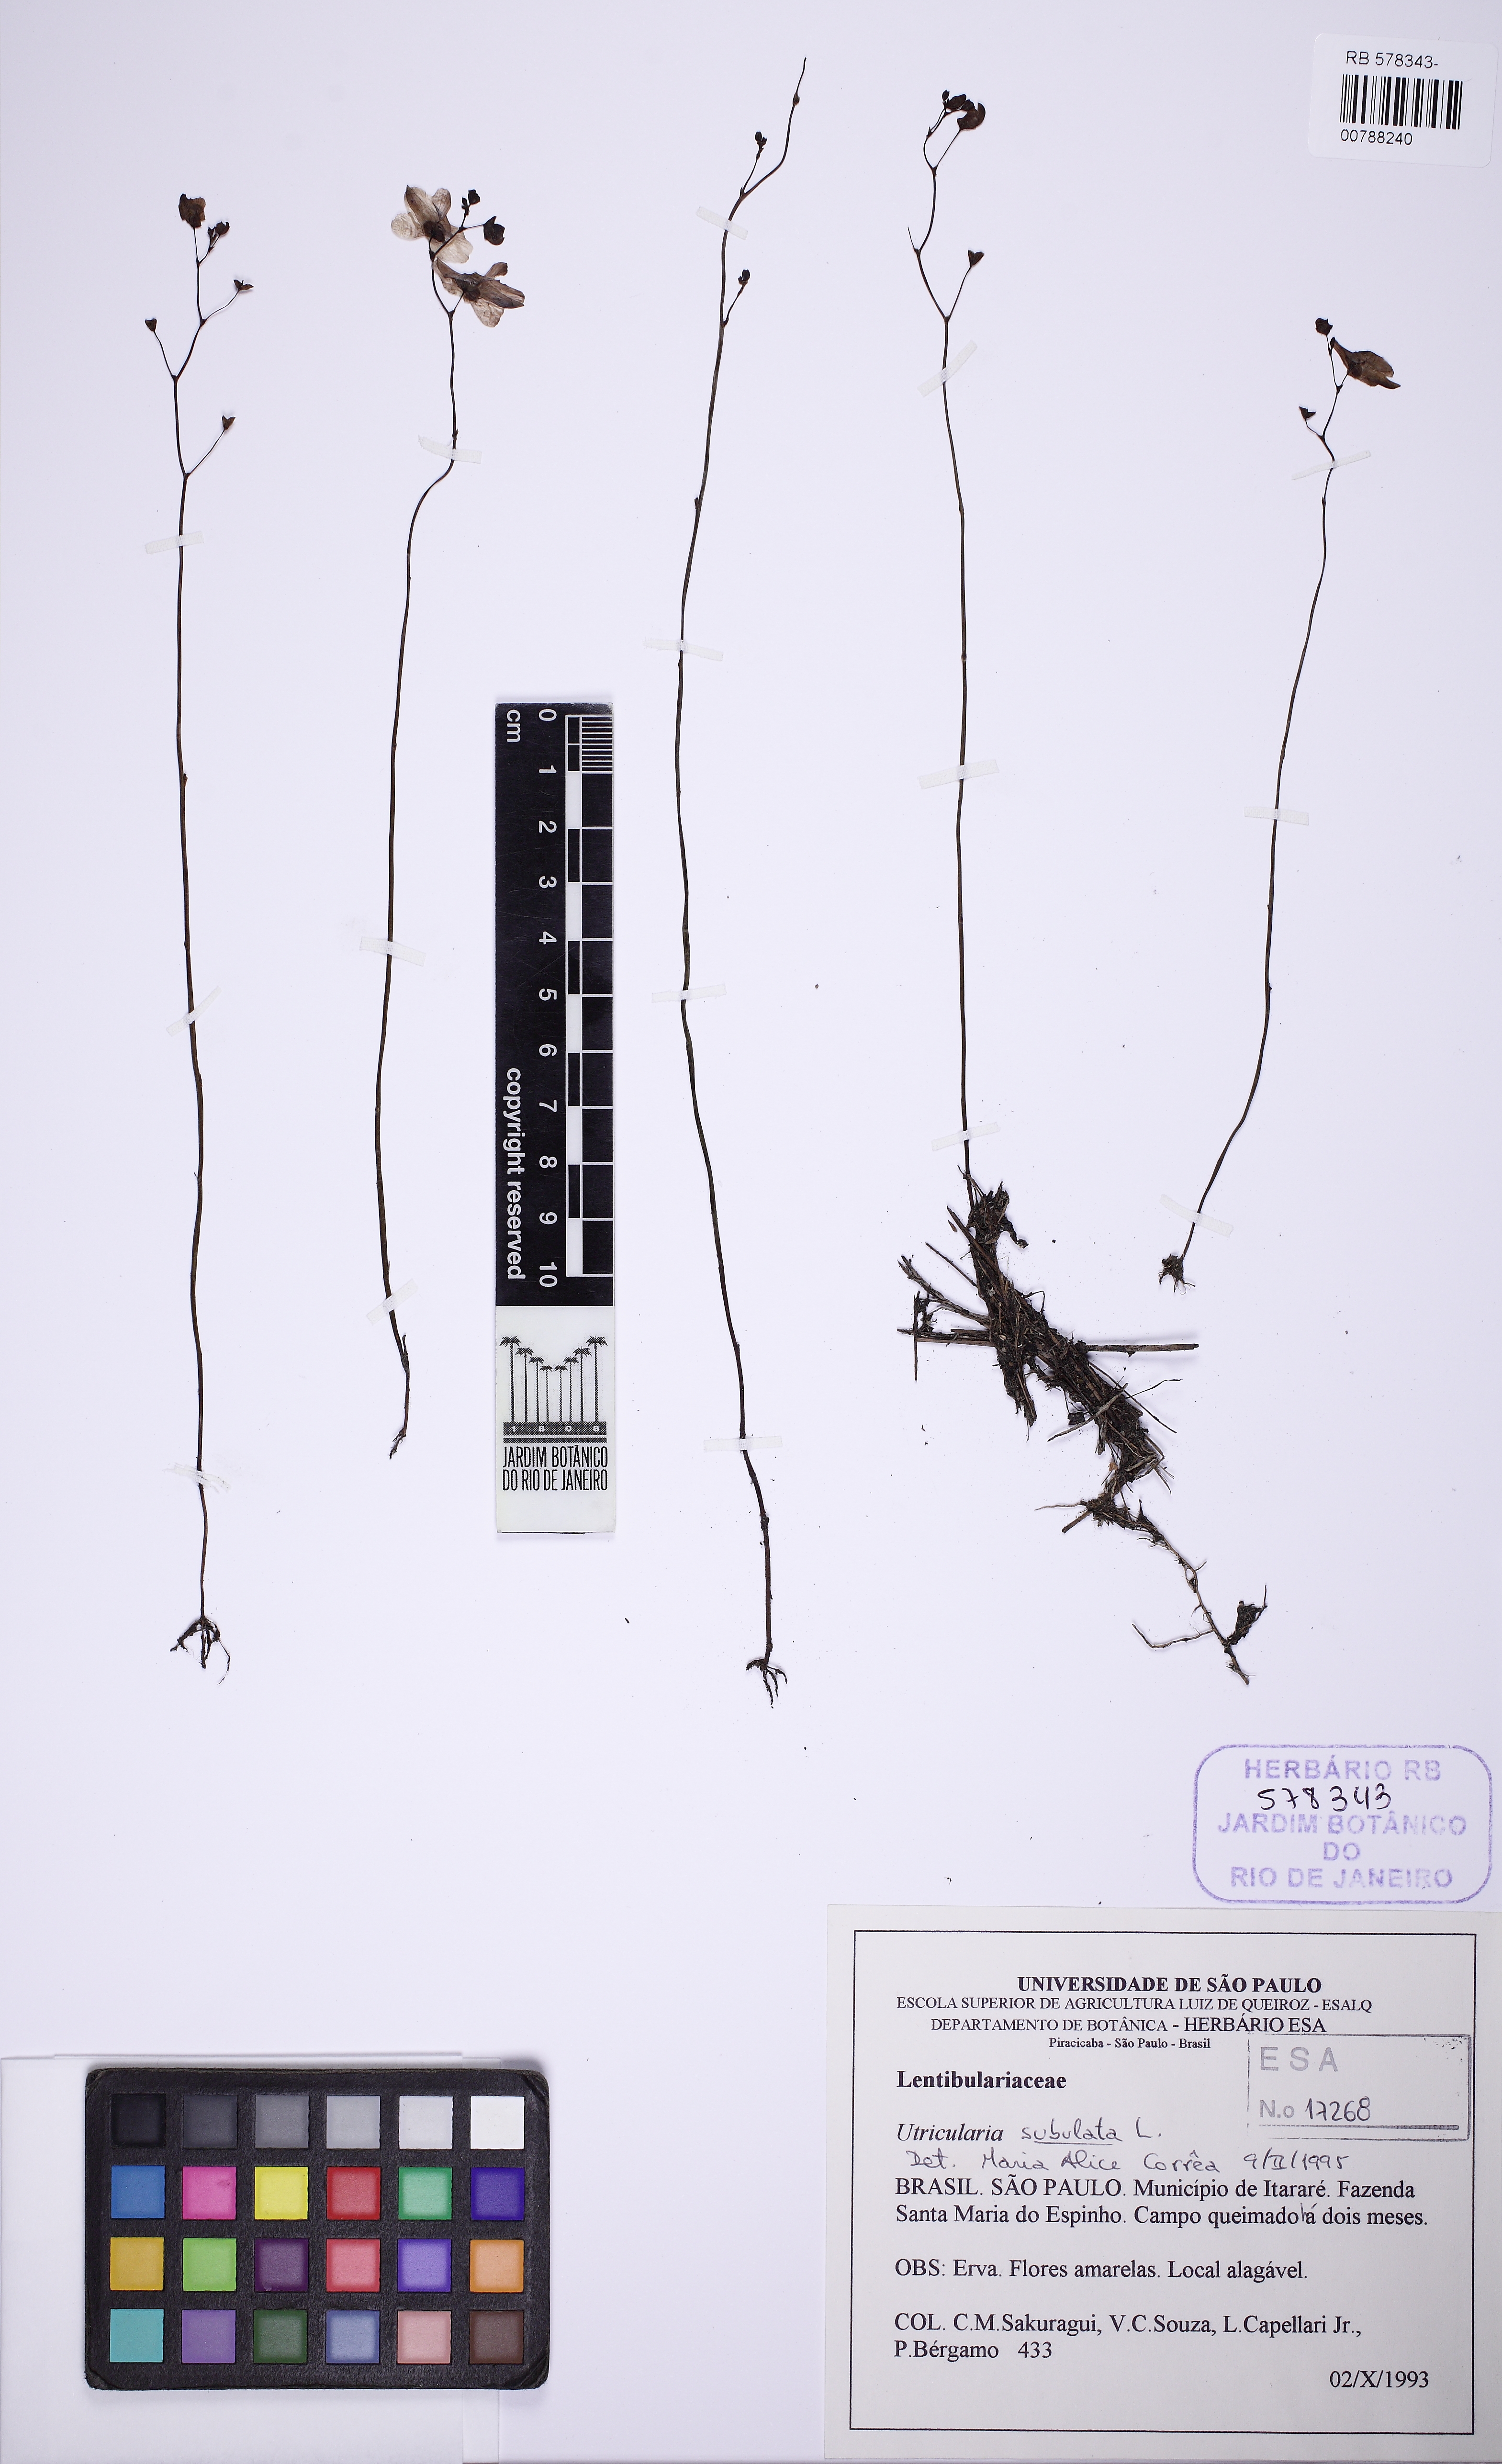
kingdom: Plantae
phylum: Tracheophyta
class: Magnoliopsida
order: Lamiales
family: Lentibulariaceae
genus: Utricularia
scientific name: Utricularia nervosa
